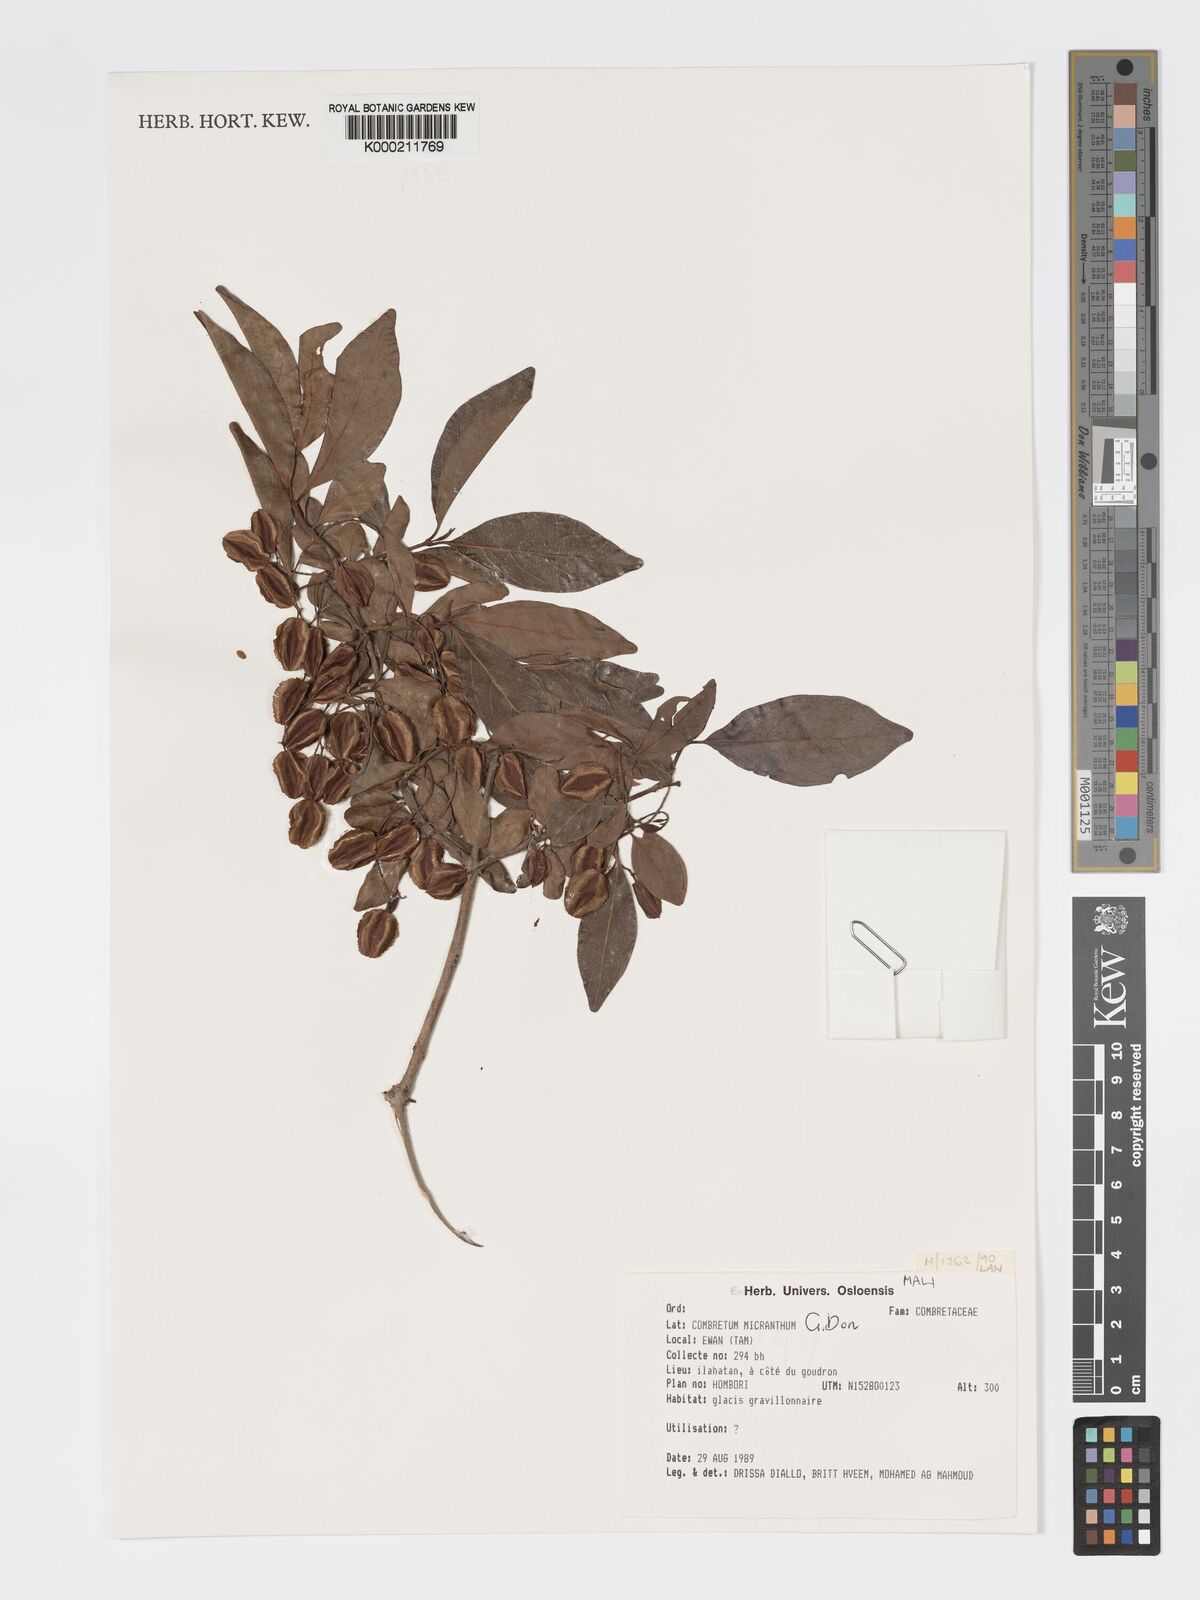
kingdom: Plantae
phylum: Tracheophyta
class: Magnoliopsida
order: Myrtales
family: Combretaceae
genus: Combretum
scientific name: Combretum micranthum
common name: Opium-antidote
